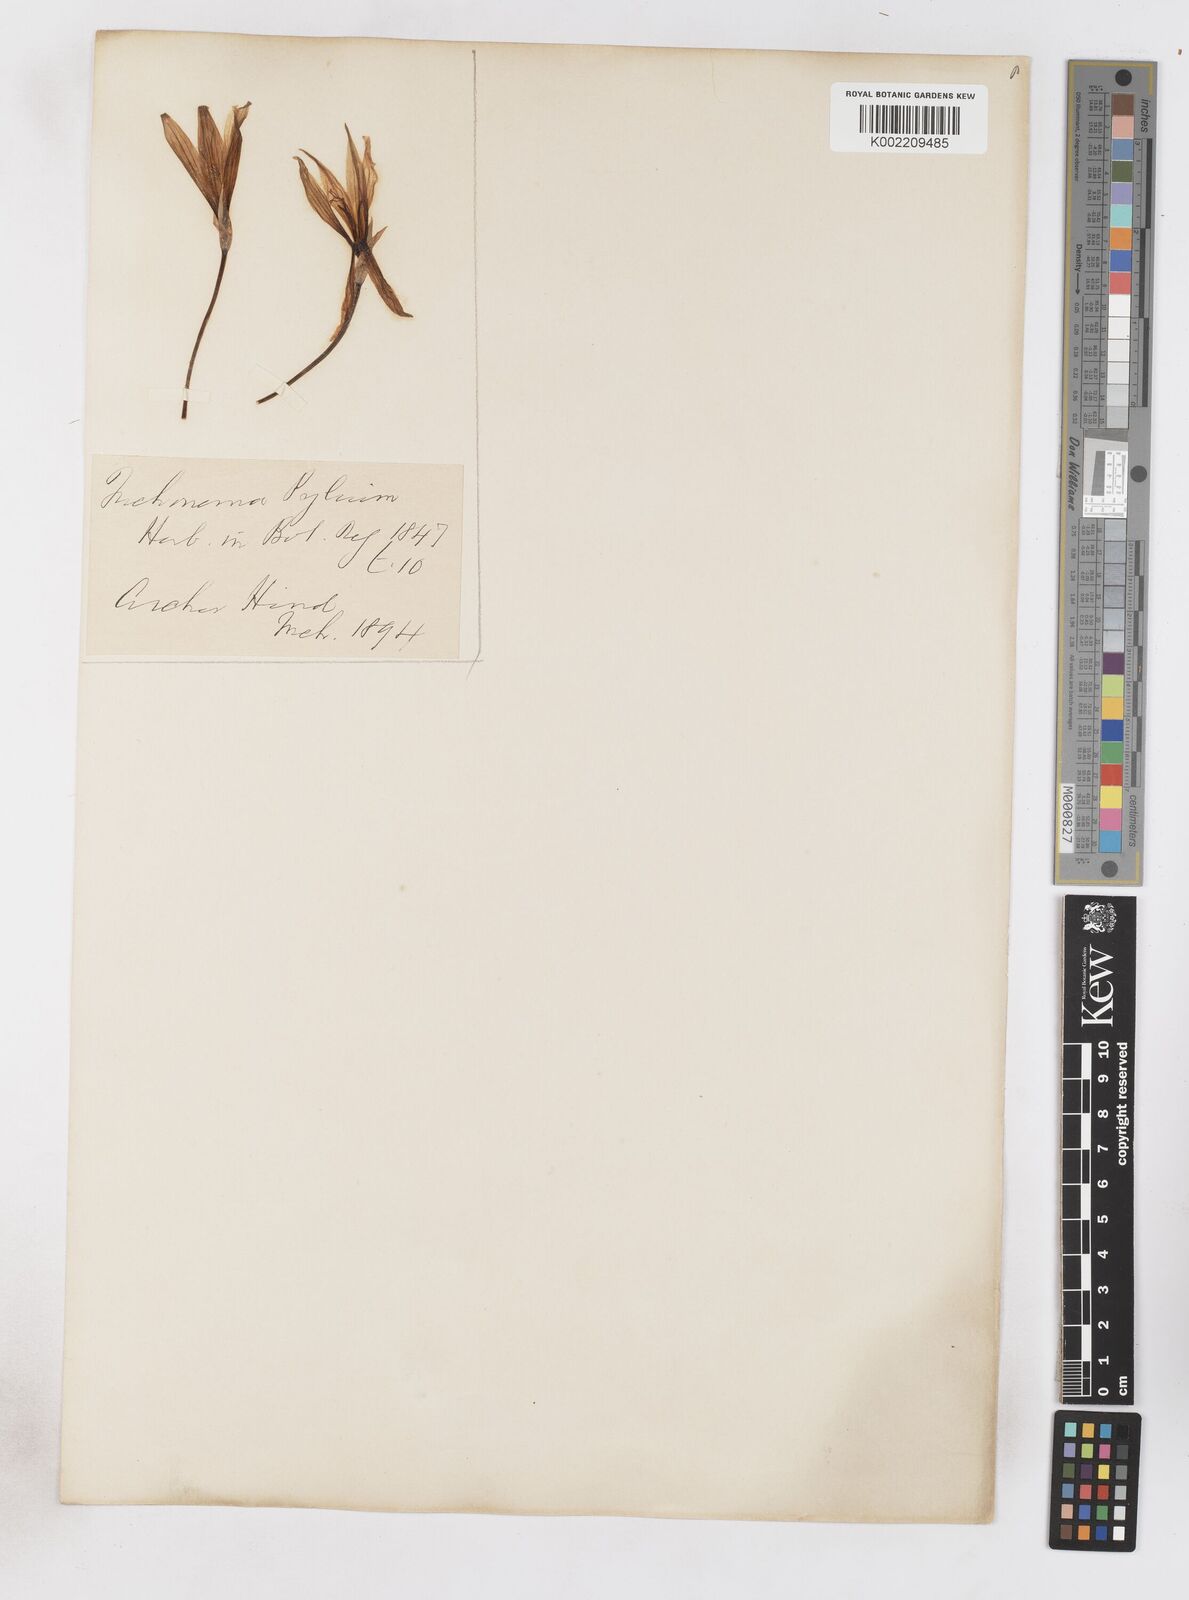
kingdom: Plantae
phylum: Tracheophyta
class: Liliopsida
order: Asparagales
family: Iridaceae
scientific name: Iridaceae
